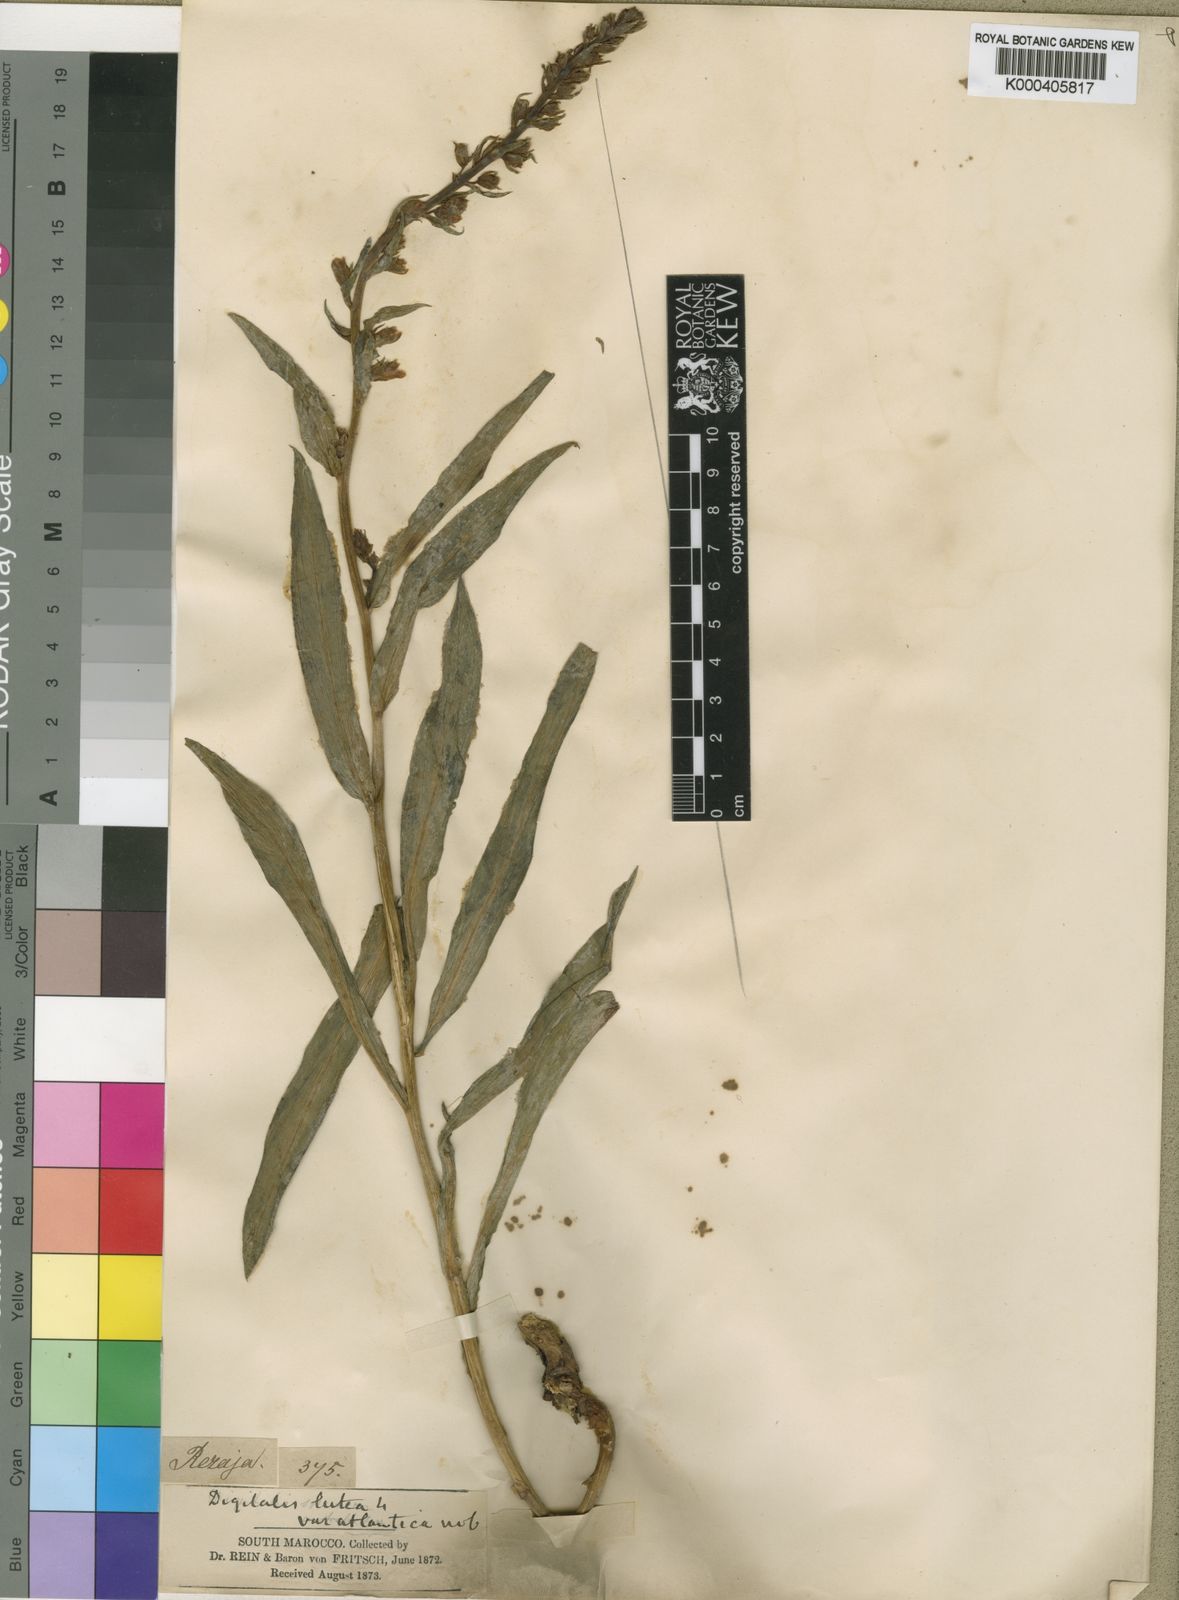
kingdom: Plantae
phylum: Tracheophyta
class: Magnoliopsida
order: Lamiales
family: Plantaginaceae
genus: Digitalis
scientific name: Digitalis subalpina
